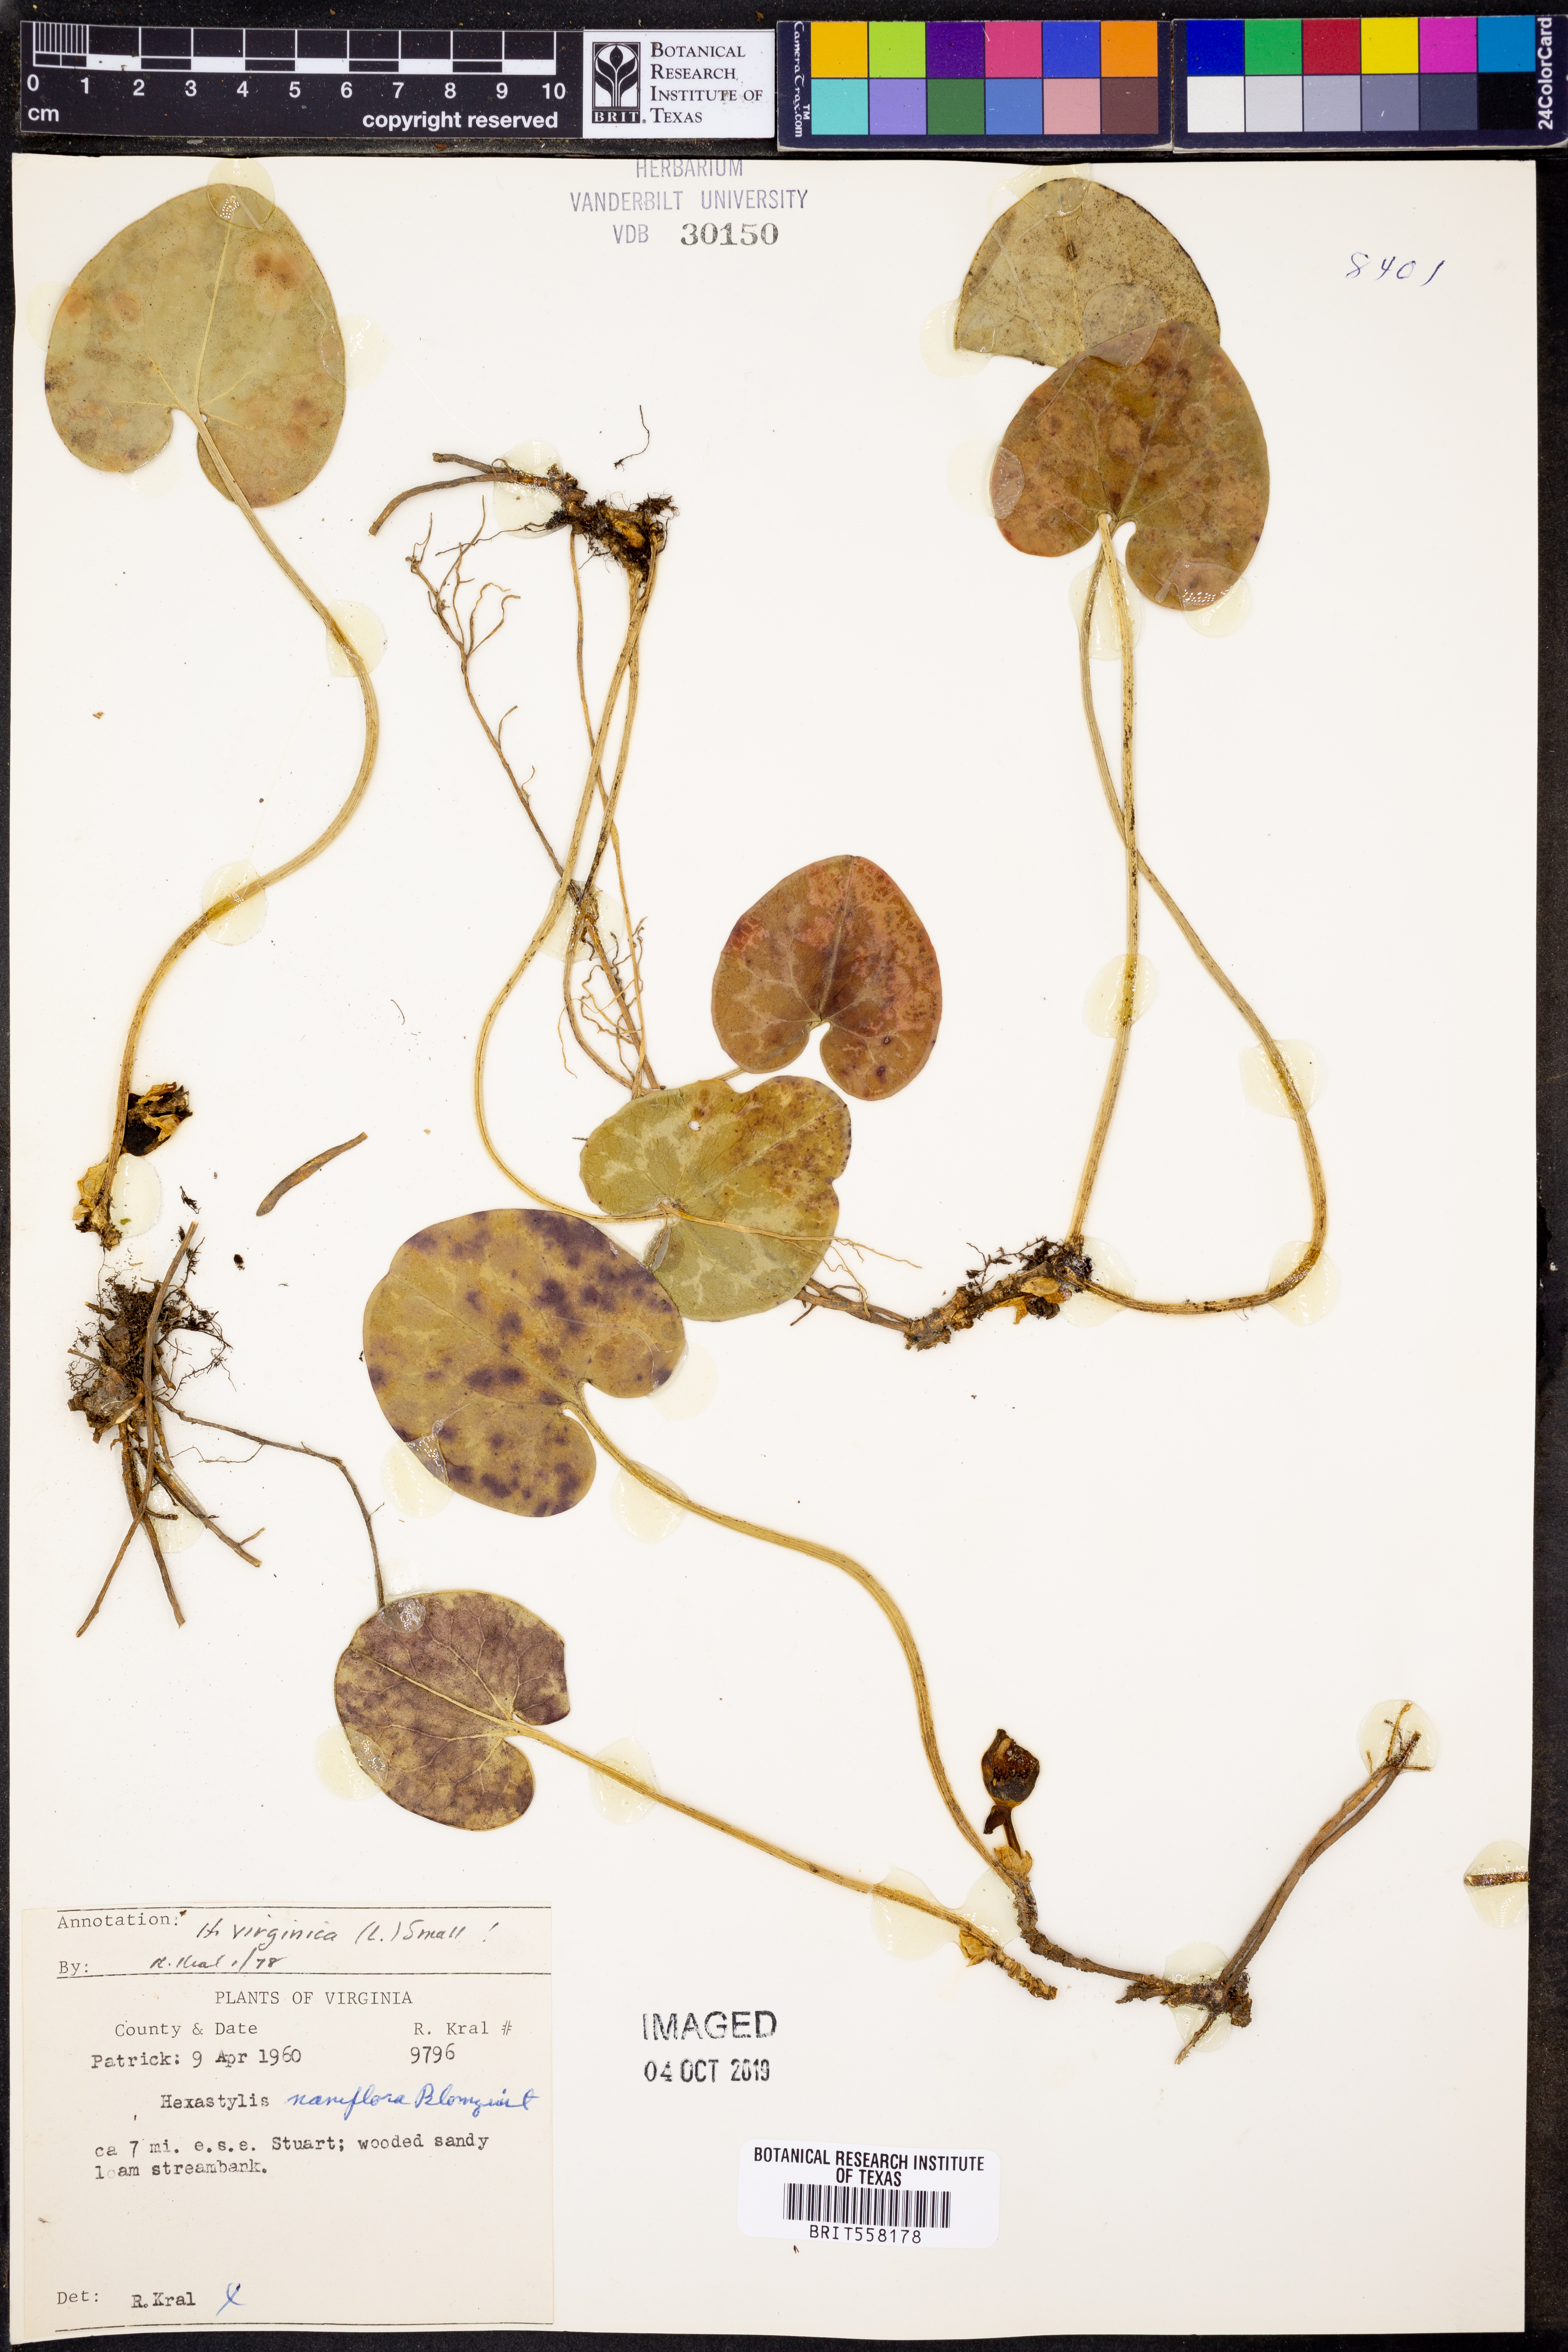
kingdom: Plantae
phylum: Tracheophyta
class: Magnoliopsida
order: Piperales
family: Aristolochiaceae
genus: Hexastylis
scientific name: Hexastylis virginica
